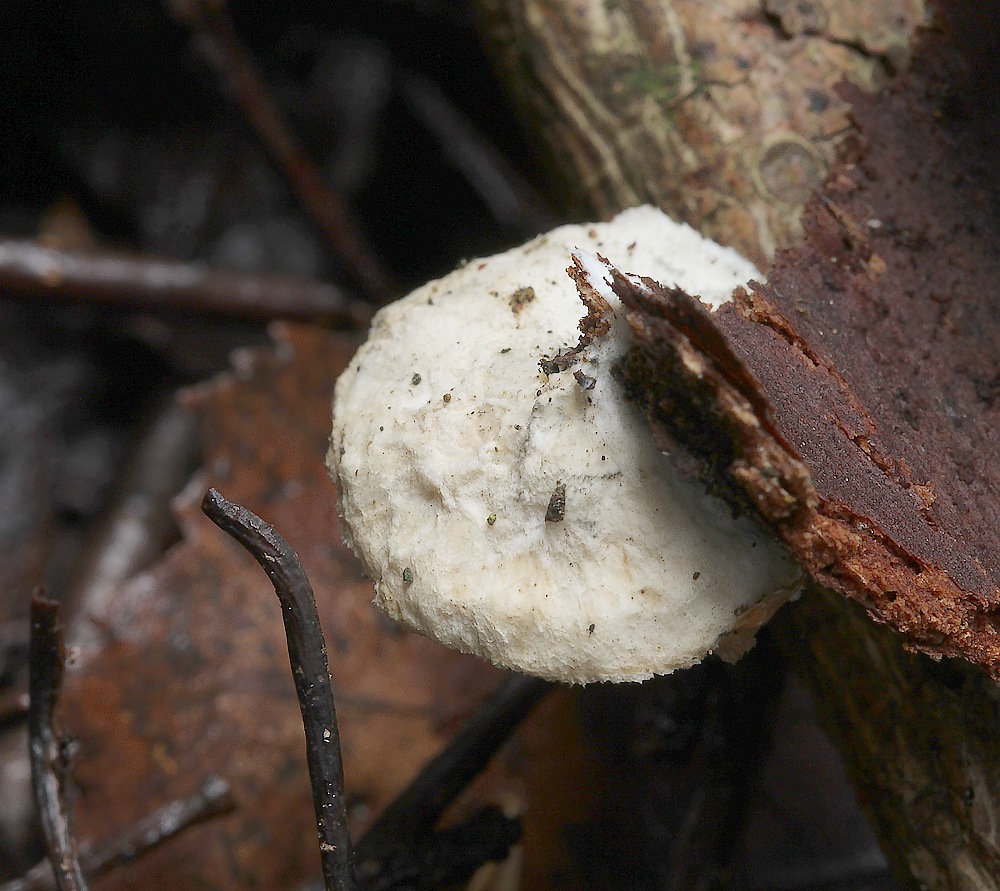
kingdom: Fungi
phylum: Basidiomycota
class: Agaricomycetes
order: Polyporales
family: Polyporaceae
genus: Cyanosporus
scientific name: Cyanosporus alni
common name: blegblå kødporesvamp
